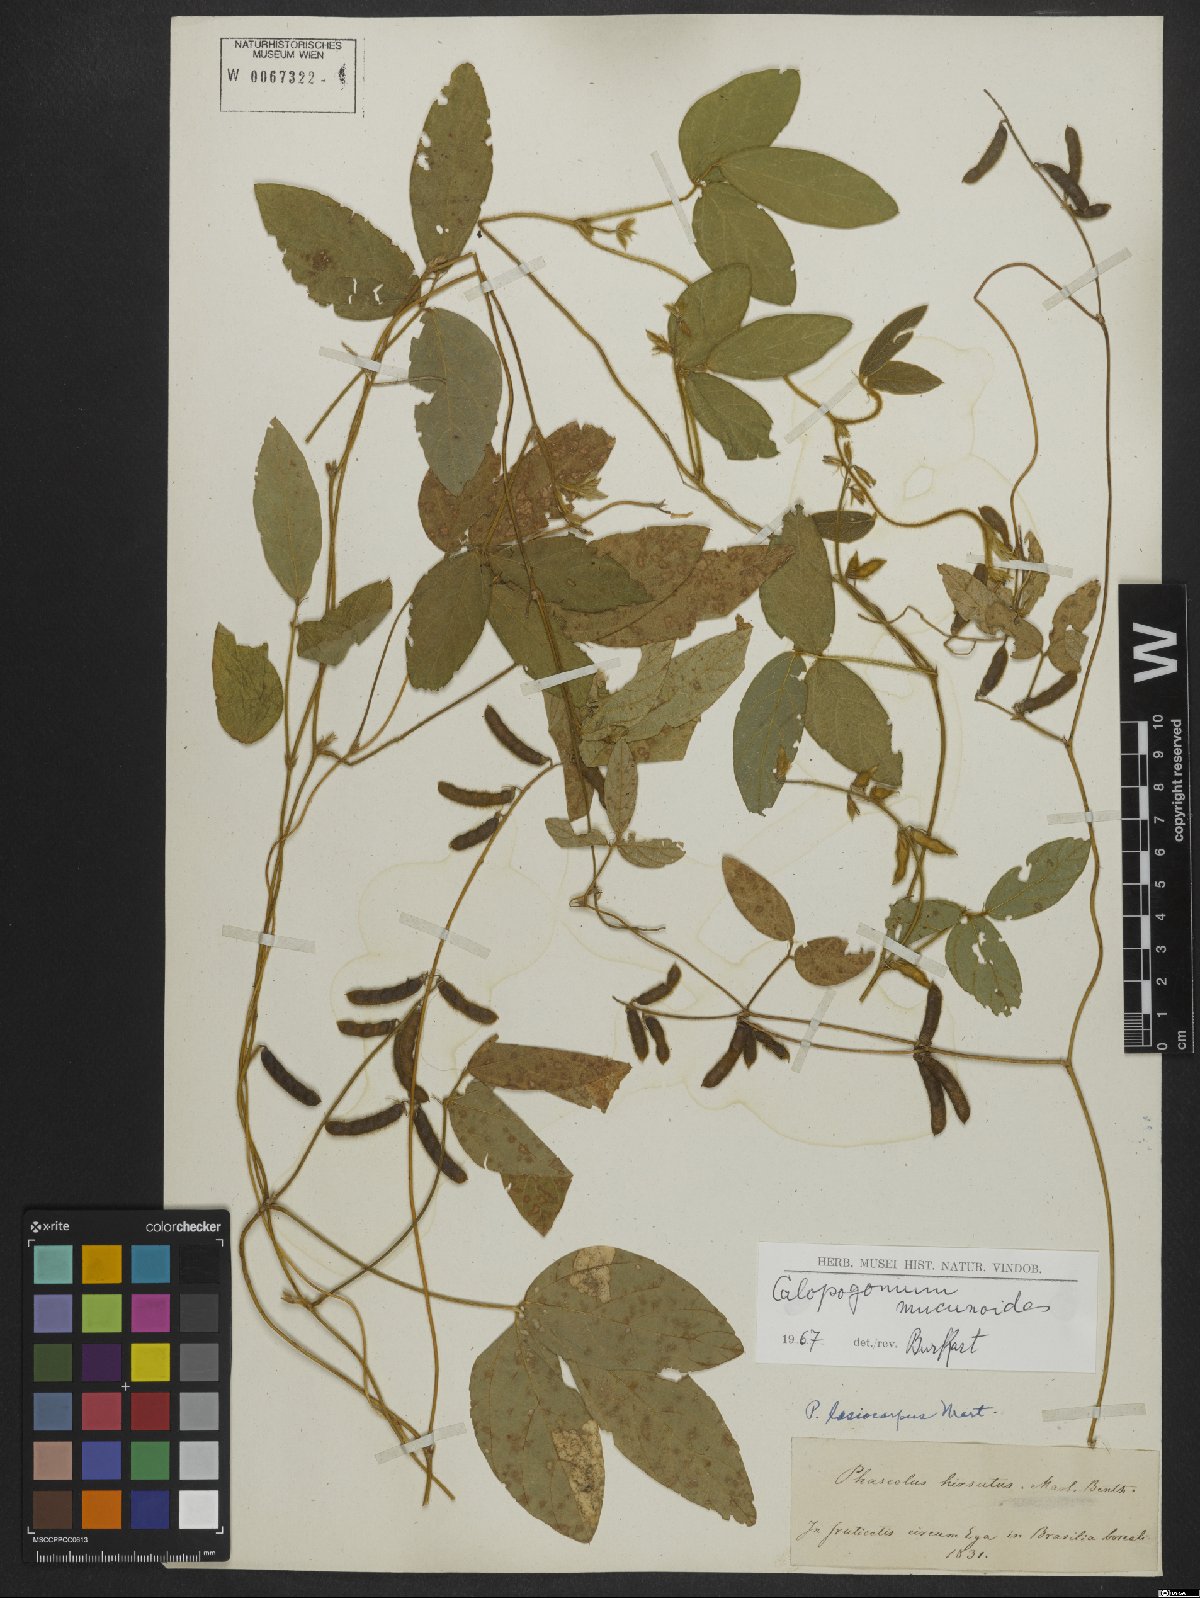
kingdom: Plantae
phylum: Tracheophyta
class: Magnoliopsida
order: Fabales
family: Fabaceae
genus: Calopogonium
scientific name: Calopogonium mucunoides
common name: Calopo
